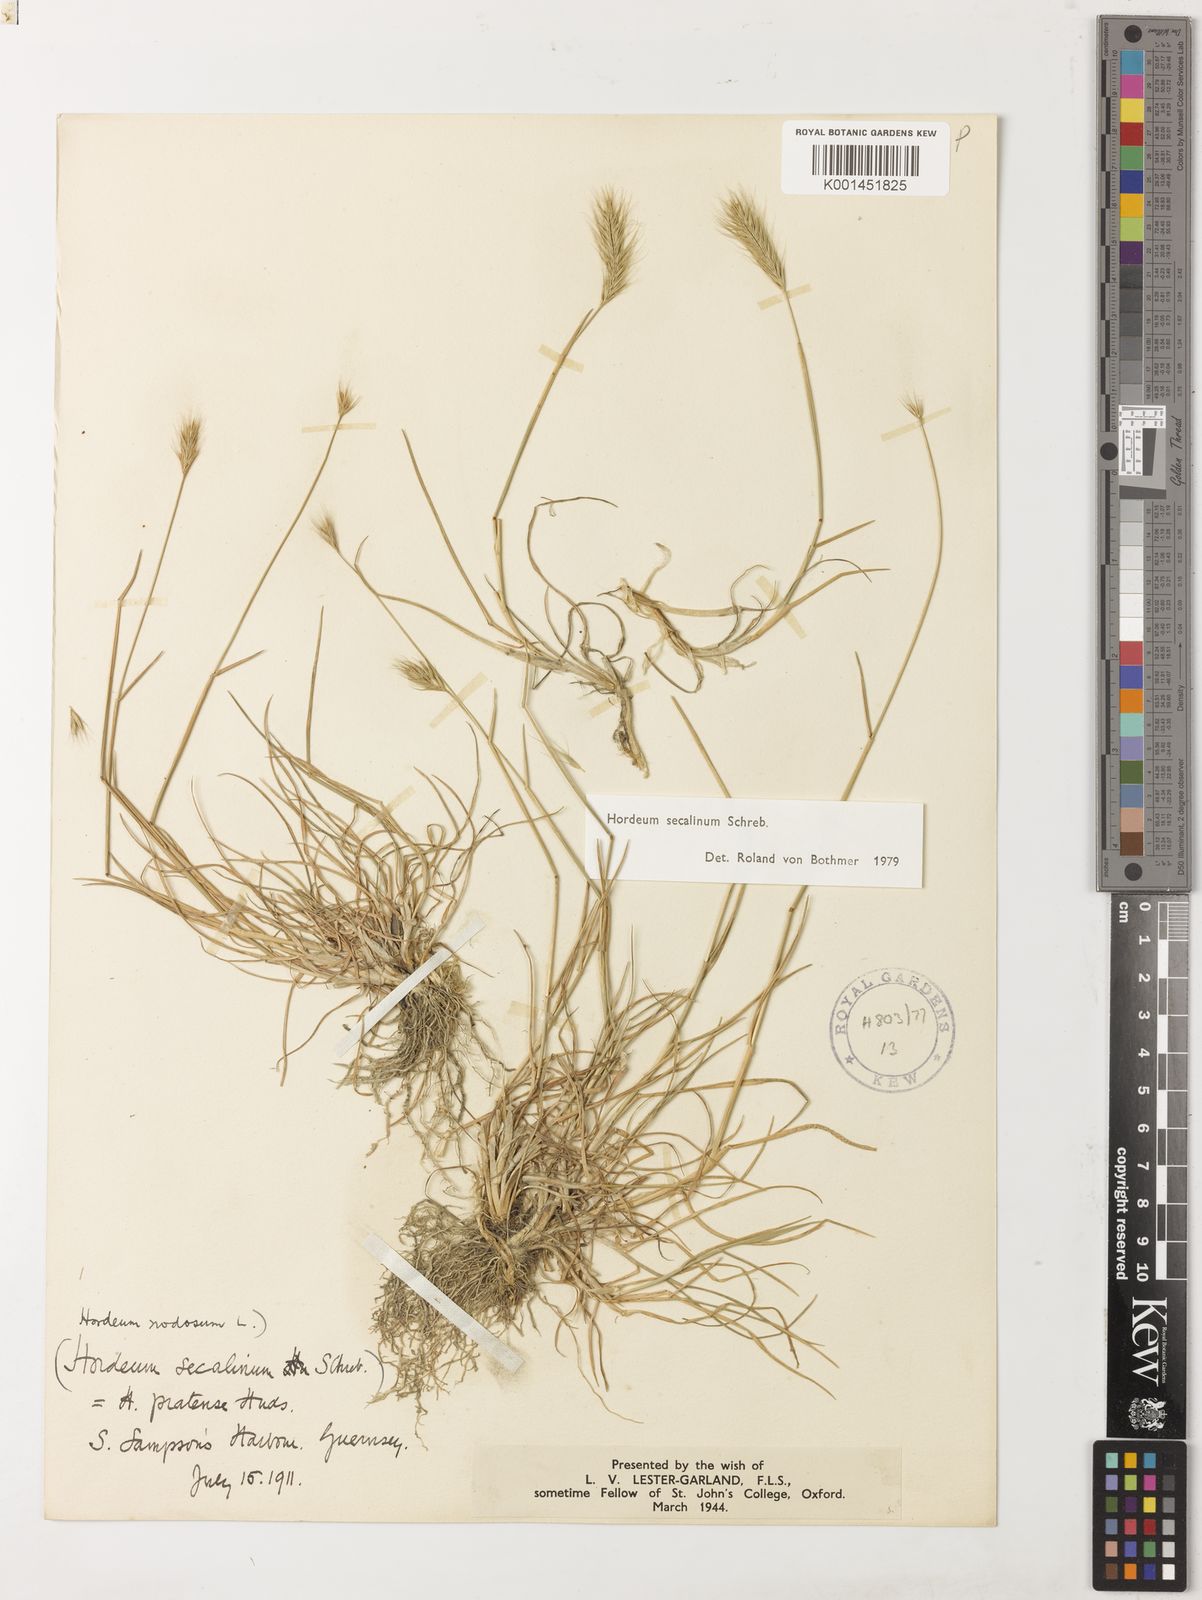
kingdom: Plantae
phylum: Tracheophyta
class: Liliopsida
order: Poales
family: Poaceae
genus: Hordeum
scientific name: Hordeum secalinum
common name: Meadow barley
